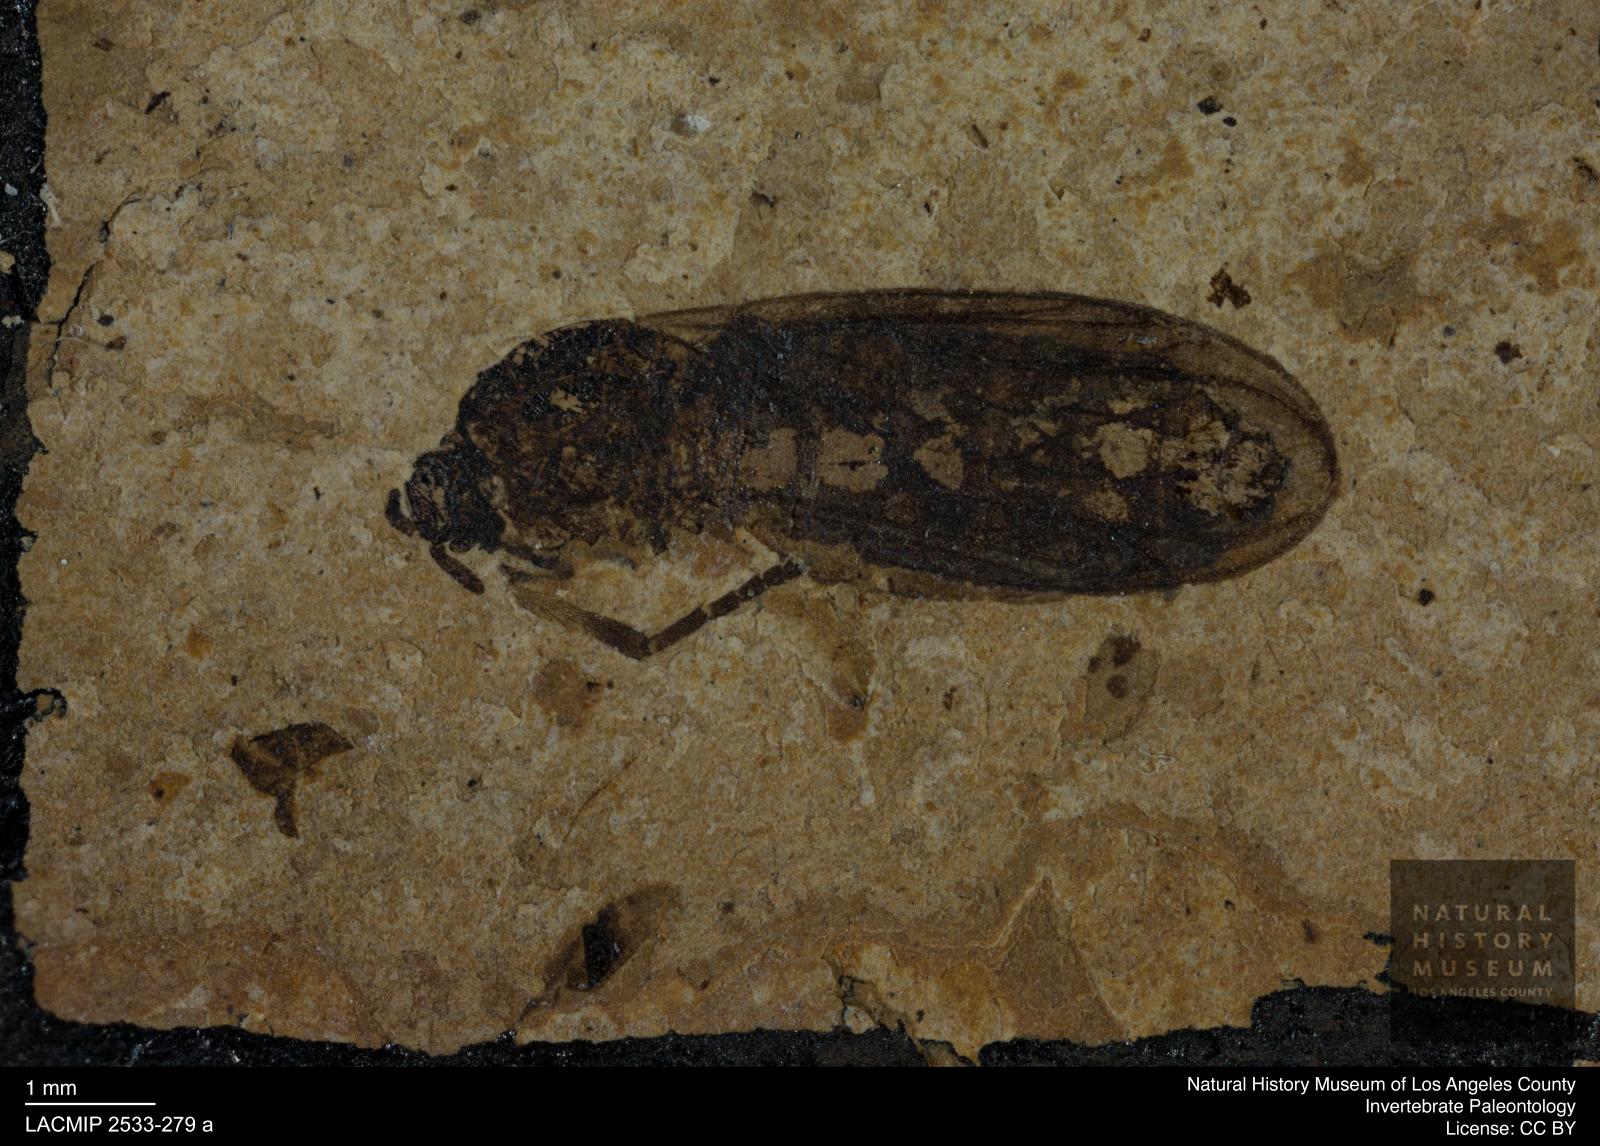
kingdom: Animalia
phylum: Arthropoda
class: Insecta
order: Diptera
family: Bibionidae
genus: Plecia
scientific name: Plecia pinguis
